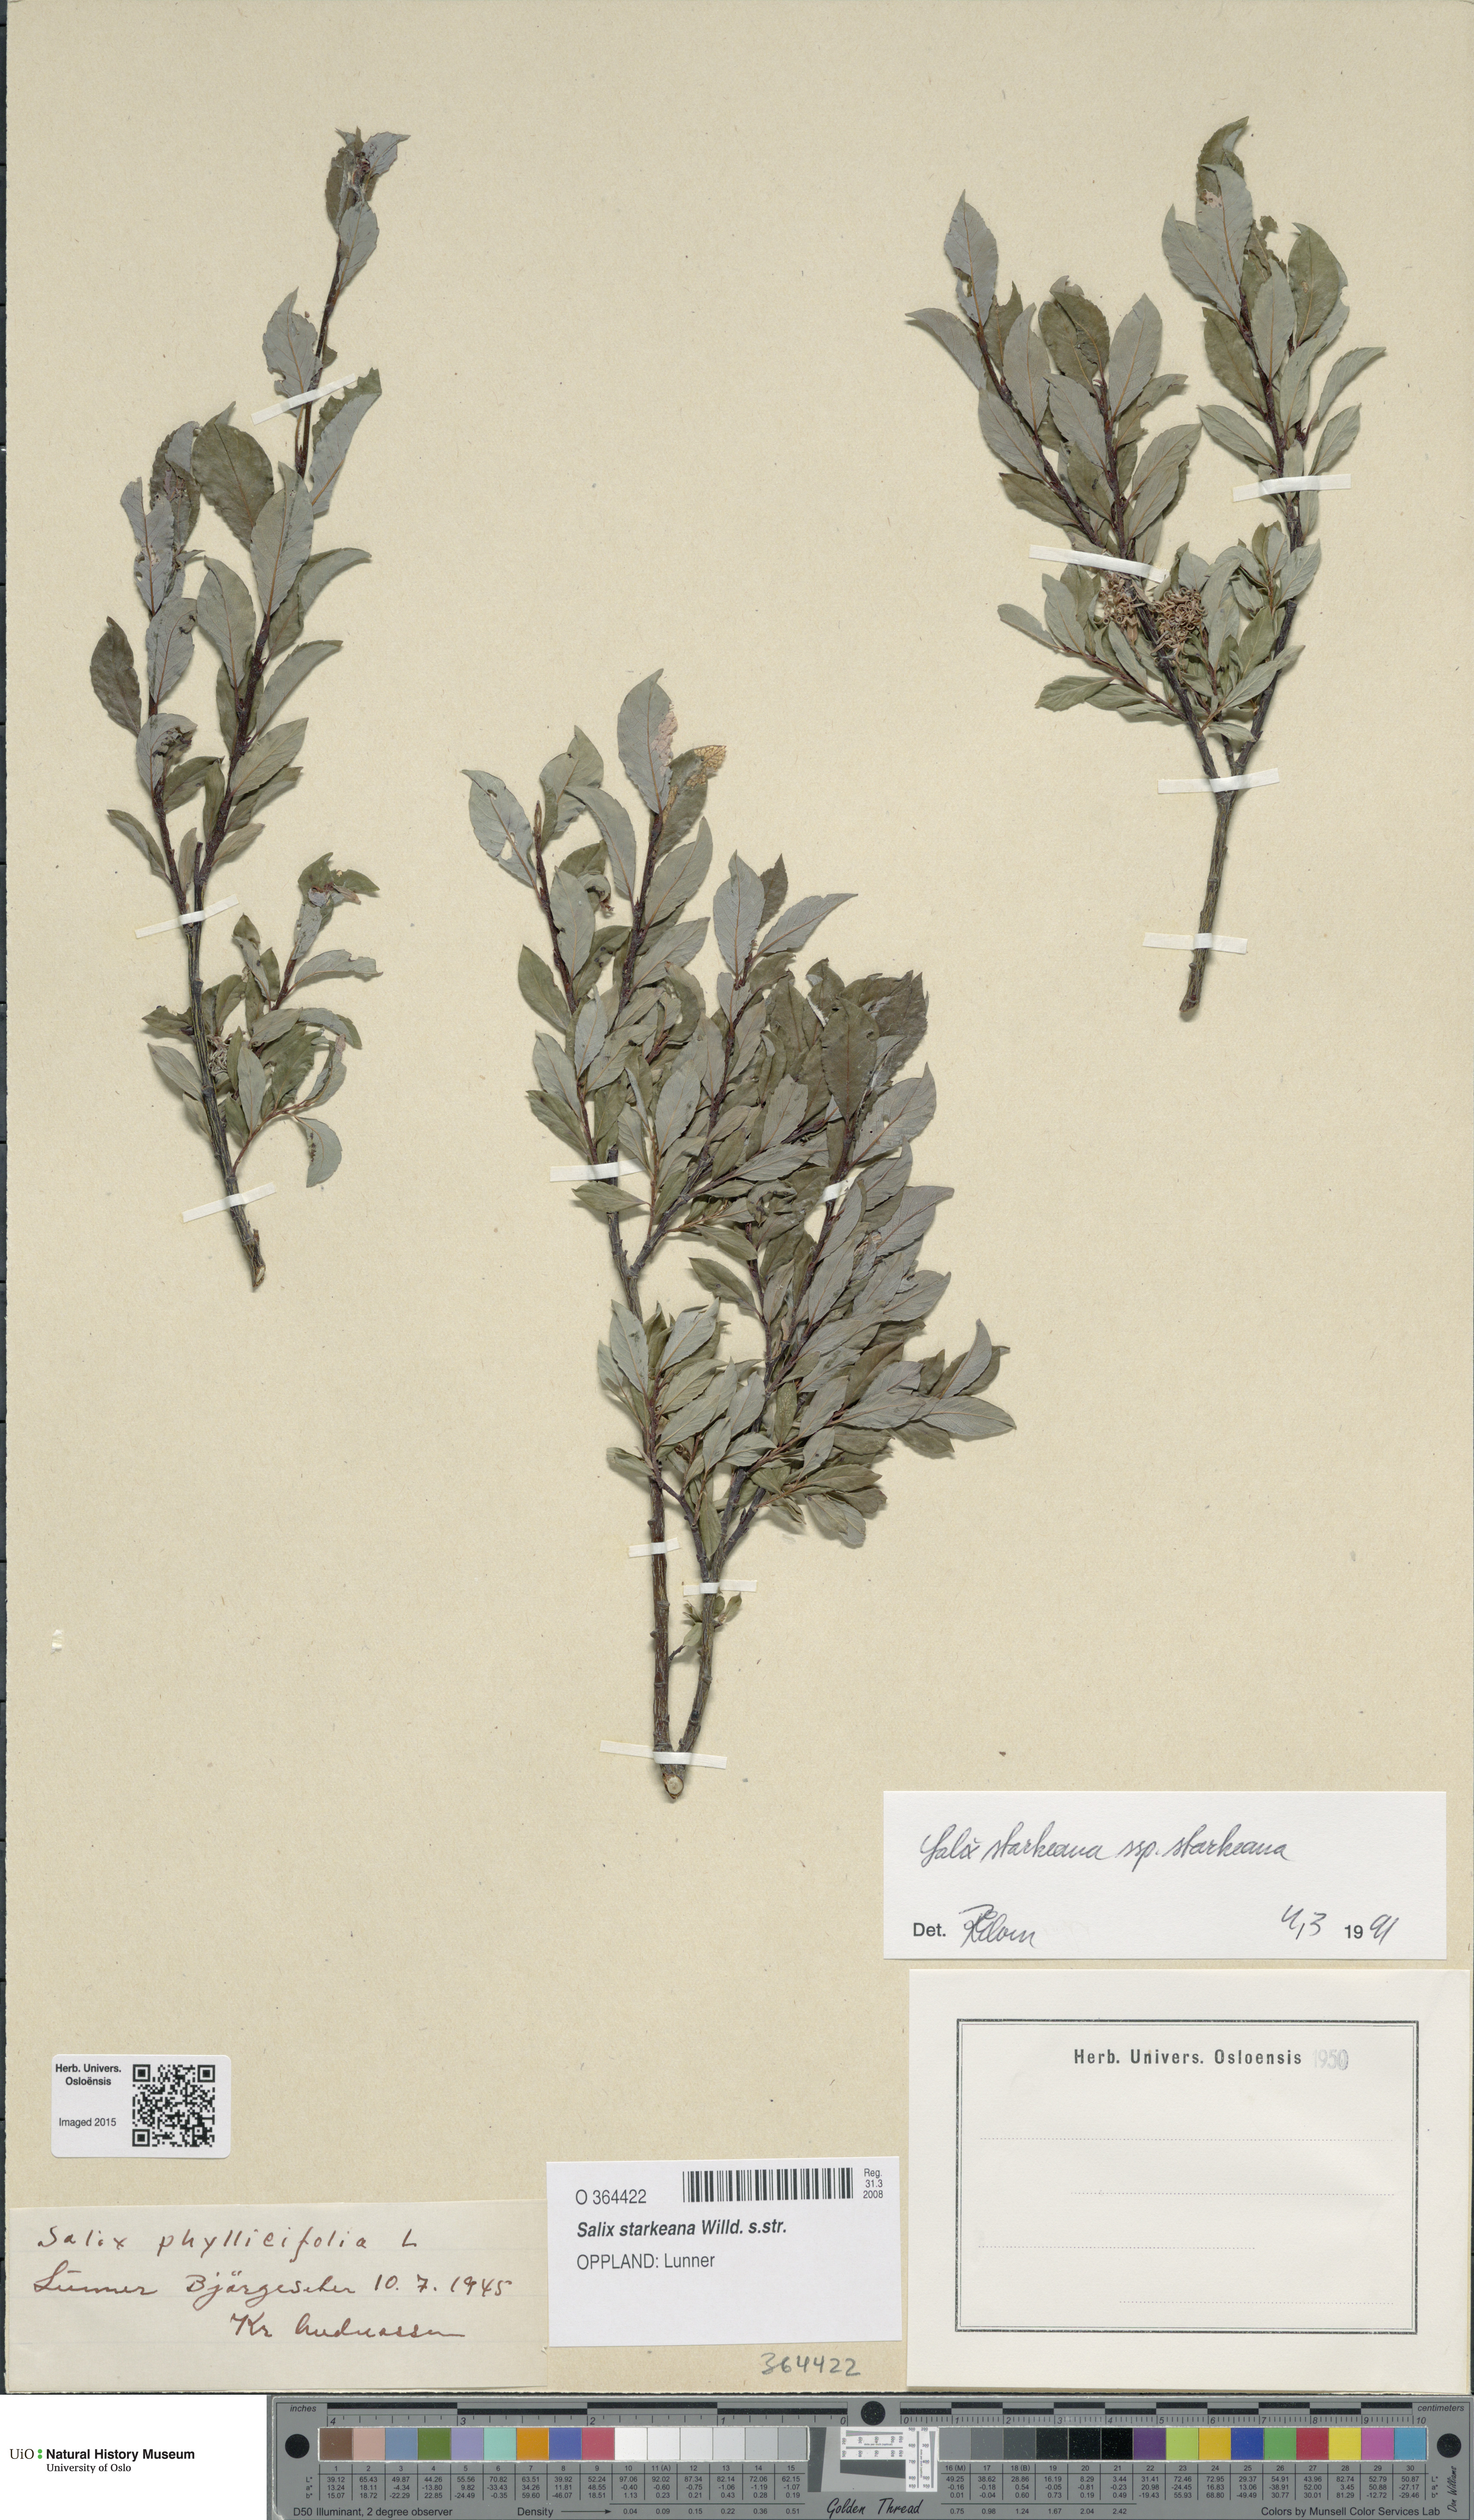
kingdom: Plantae
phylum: Tracheophyta
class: Magnoliopsida
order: Malpighiales
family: Salicaceae
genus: Salix
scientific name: Salix starkeana
